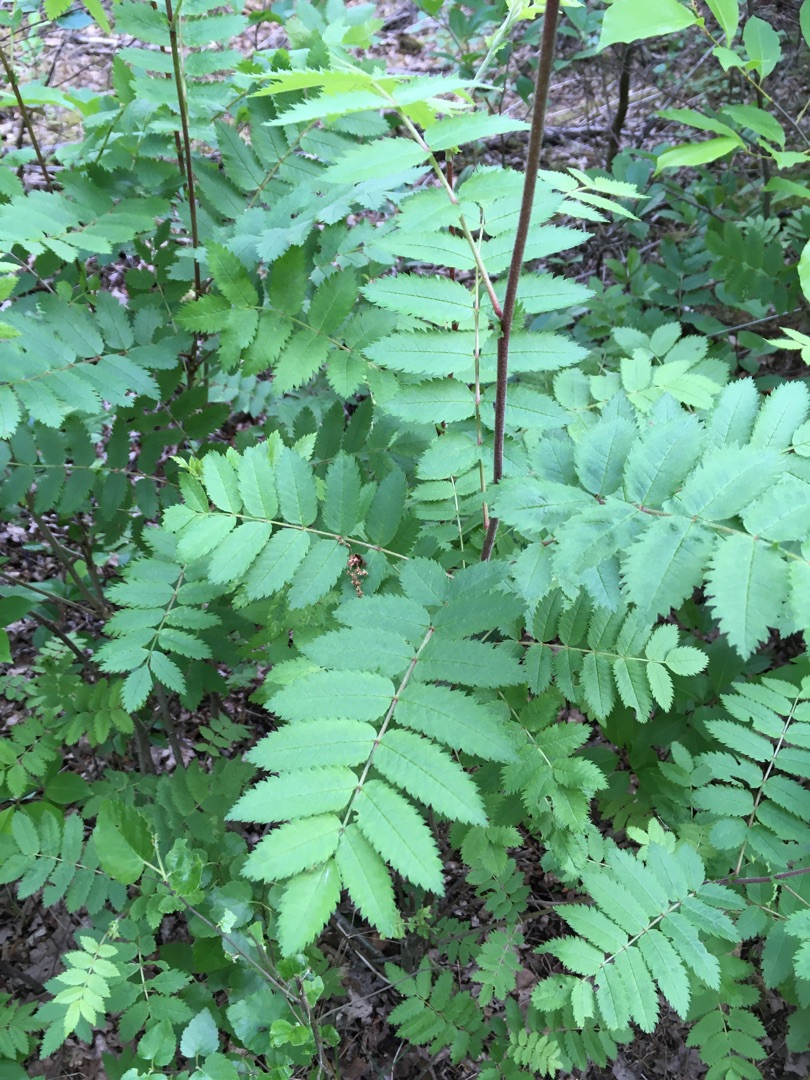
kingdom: Plantae
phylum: Tracheophyta
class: Magnoliopsida
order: Rosales
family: Rosaceae
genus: Sorbus
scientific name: Sorbus aucuparia
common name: Almindelig røn
